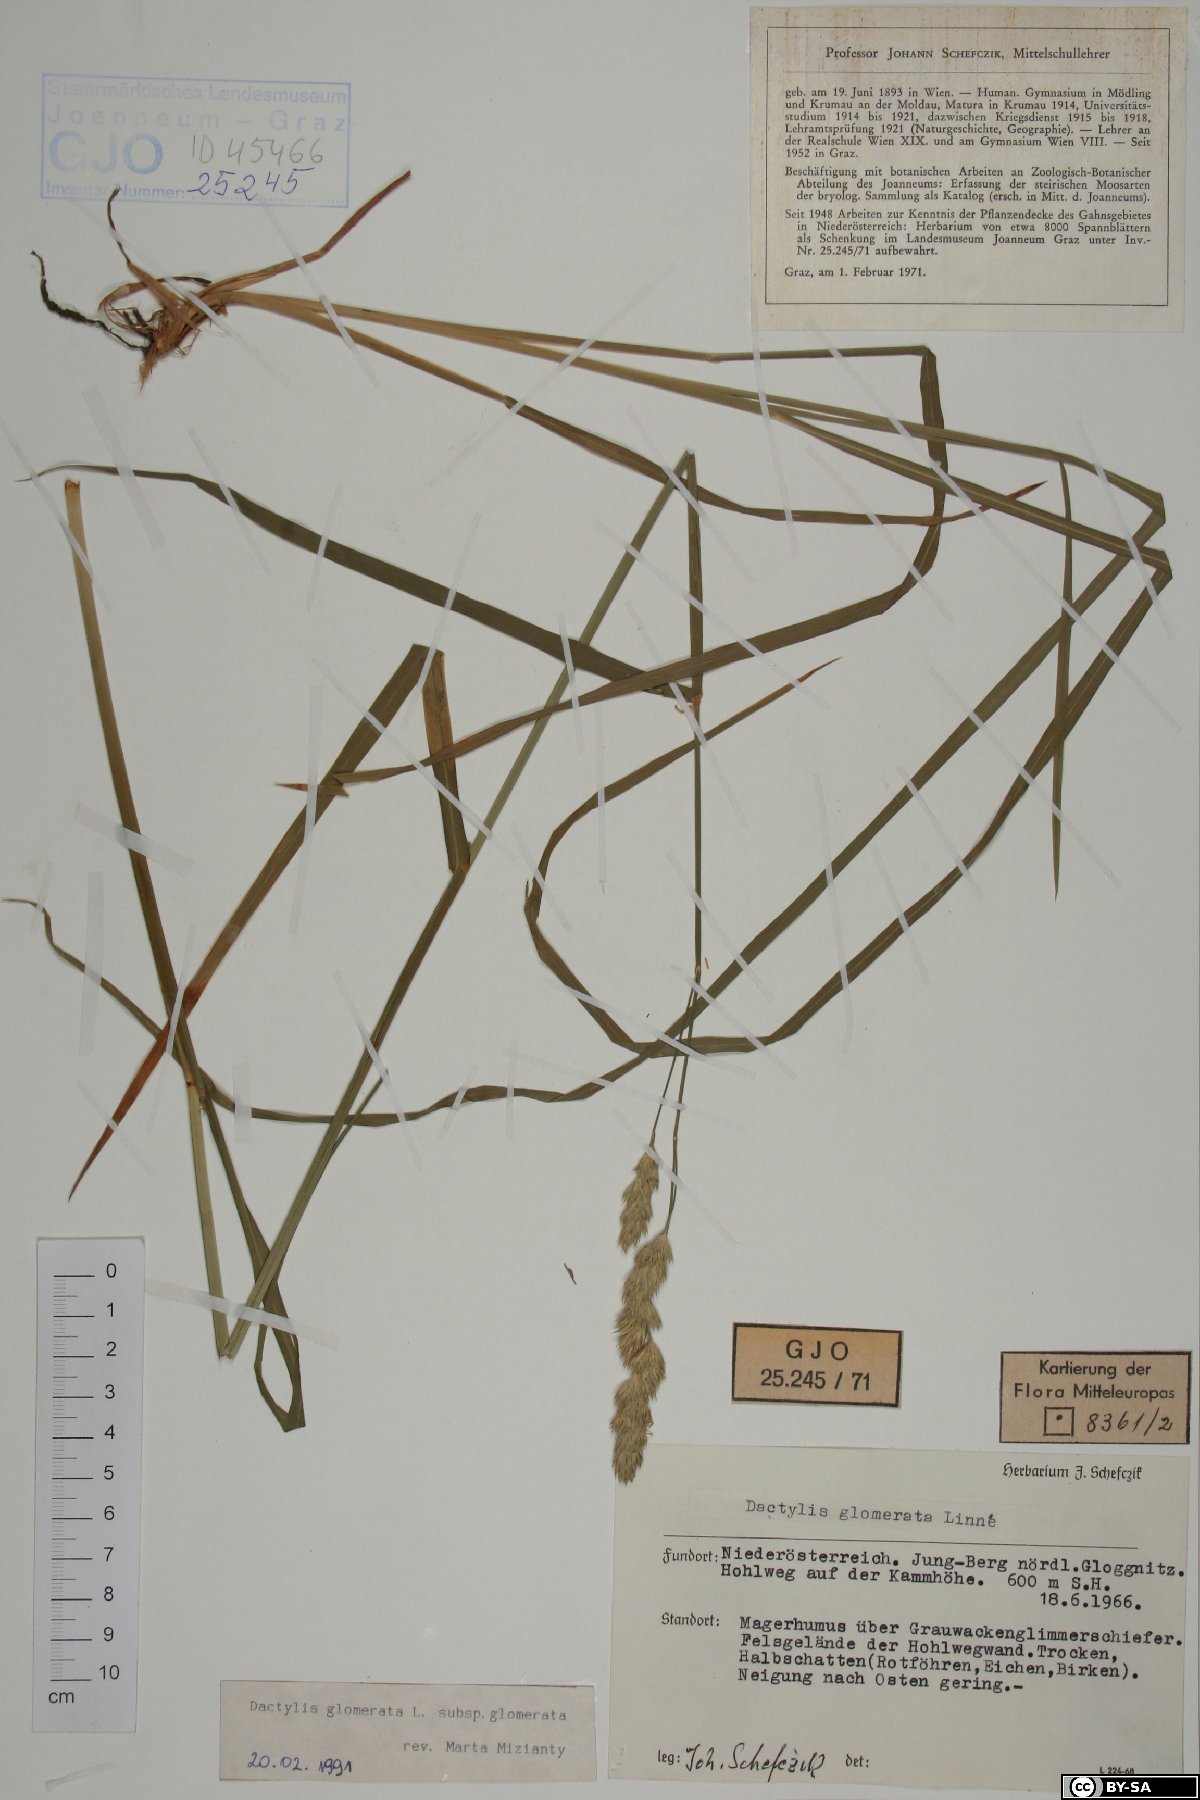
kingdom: Plantae
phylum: Tracheophyta
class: Liliopsida
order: Poales
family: Poaceae
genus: Dactylis
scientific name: Dactylis glomerata
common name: Orchardgrass
